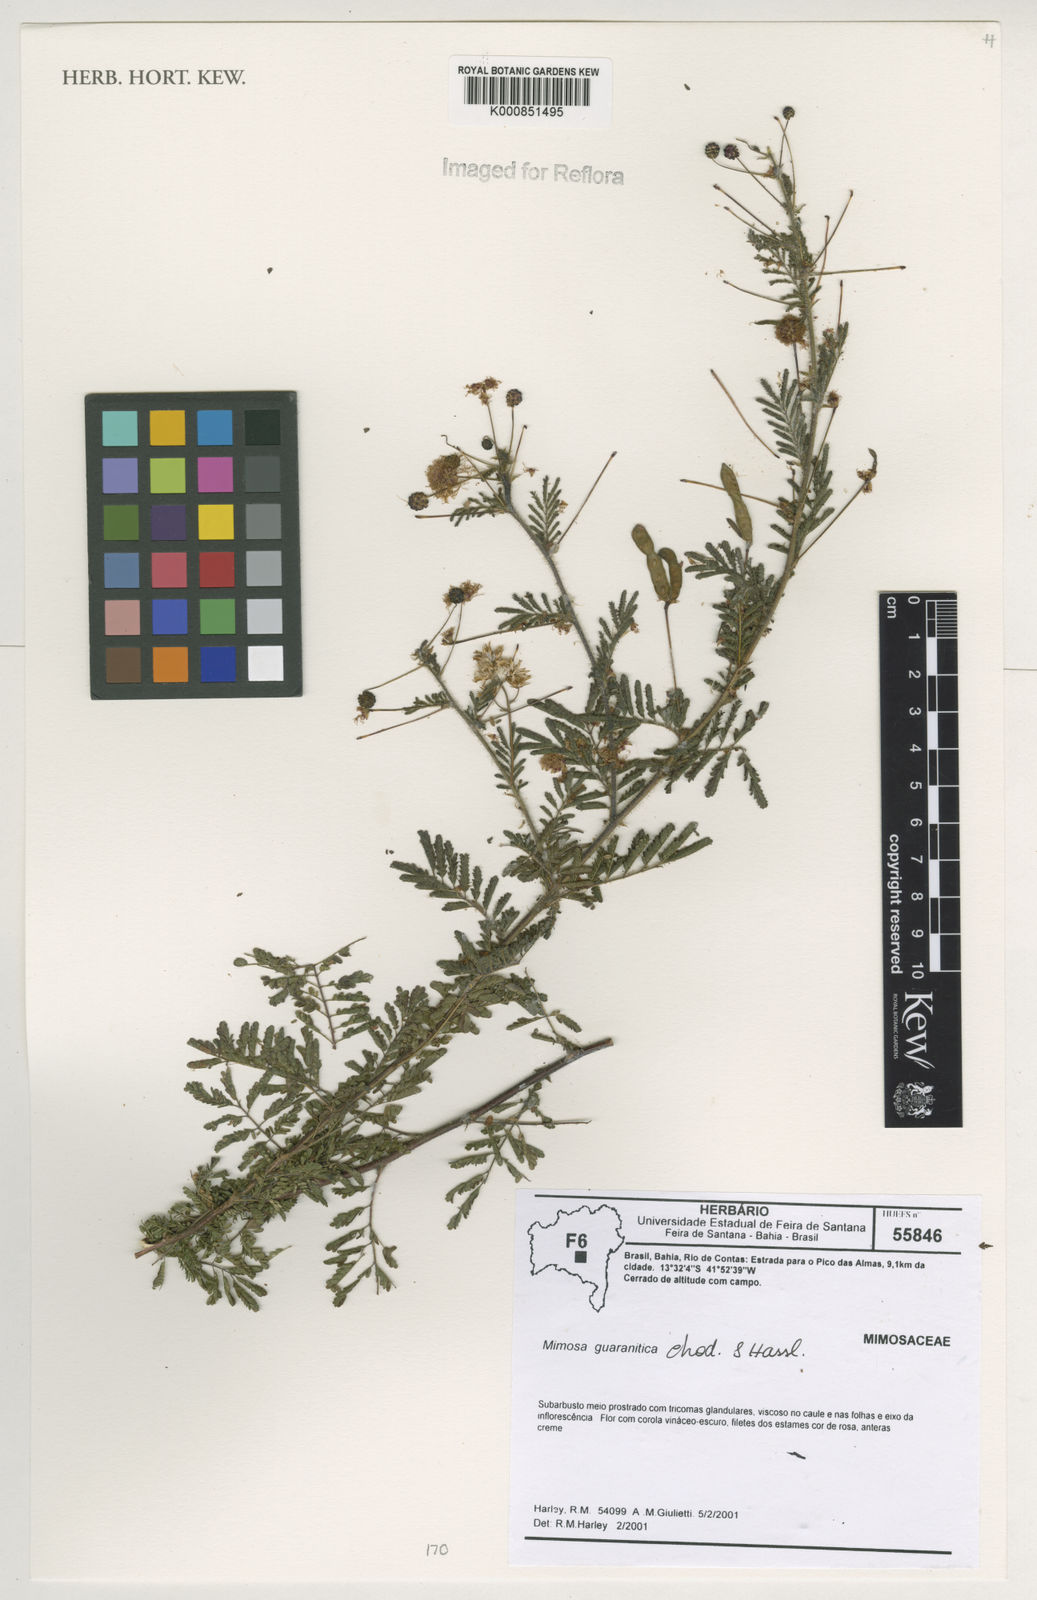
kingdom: Plantae
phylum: Tracheophyta
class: Magnoliopsida
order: Fabales
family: Fabaceae
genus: Mimosa
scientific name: Mimosa guaranitica
